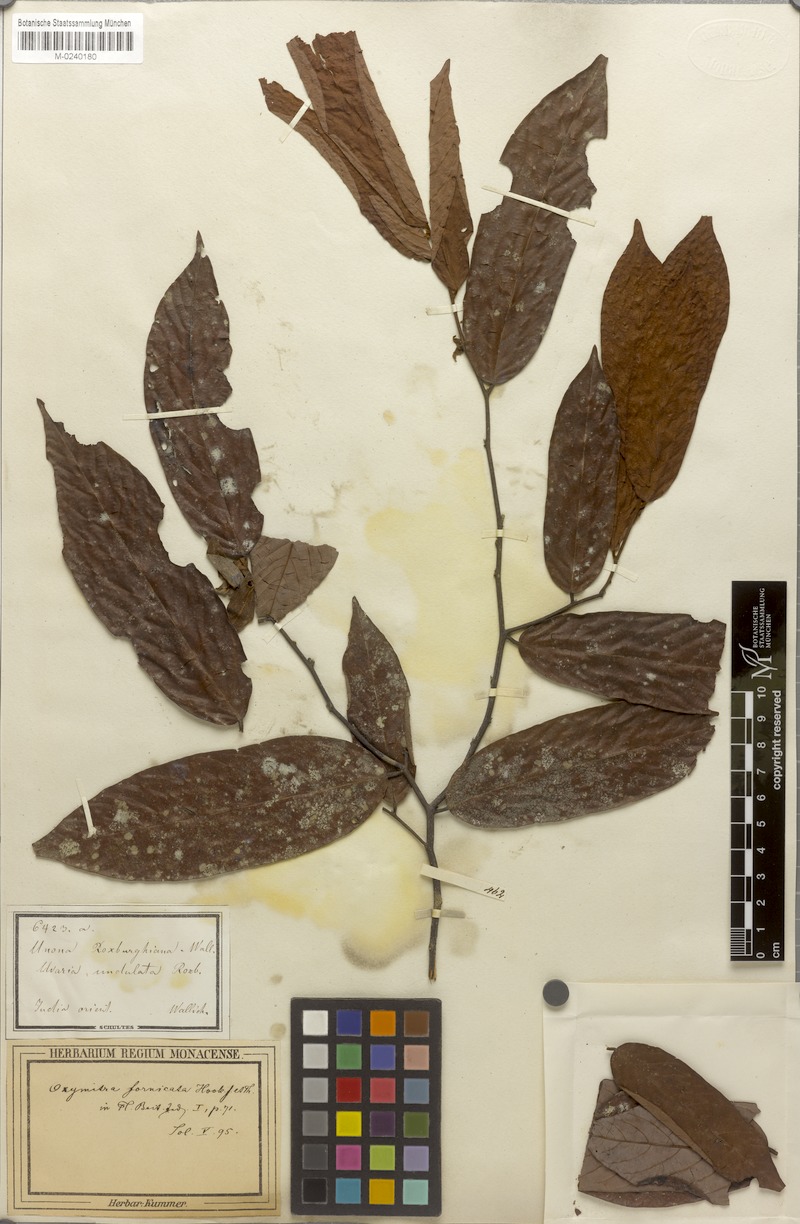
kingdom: Plantae
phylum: Tracheophyta
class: Magnoliopsida
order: Magnoliales
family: Annonaceae
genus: Friesodielsia
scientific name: Friesodielsia fornicata
